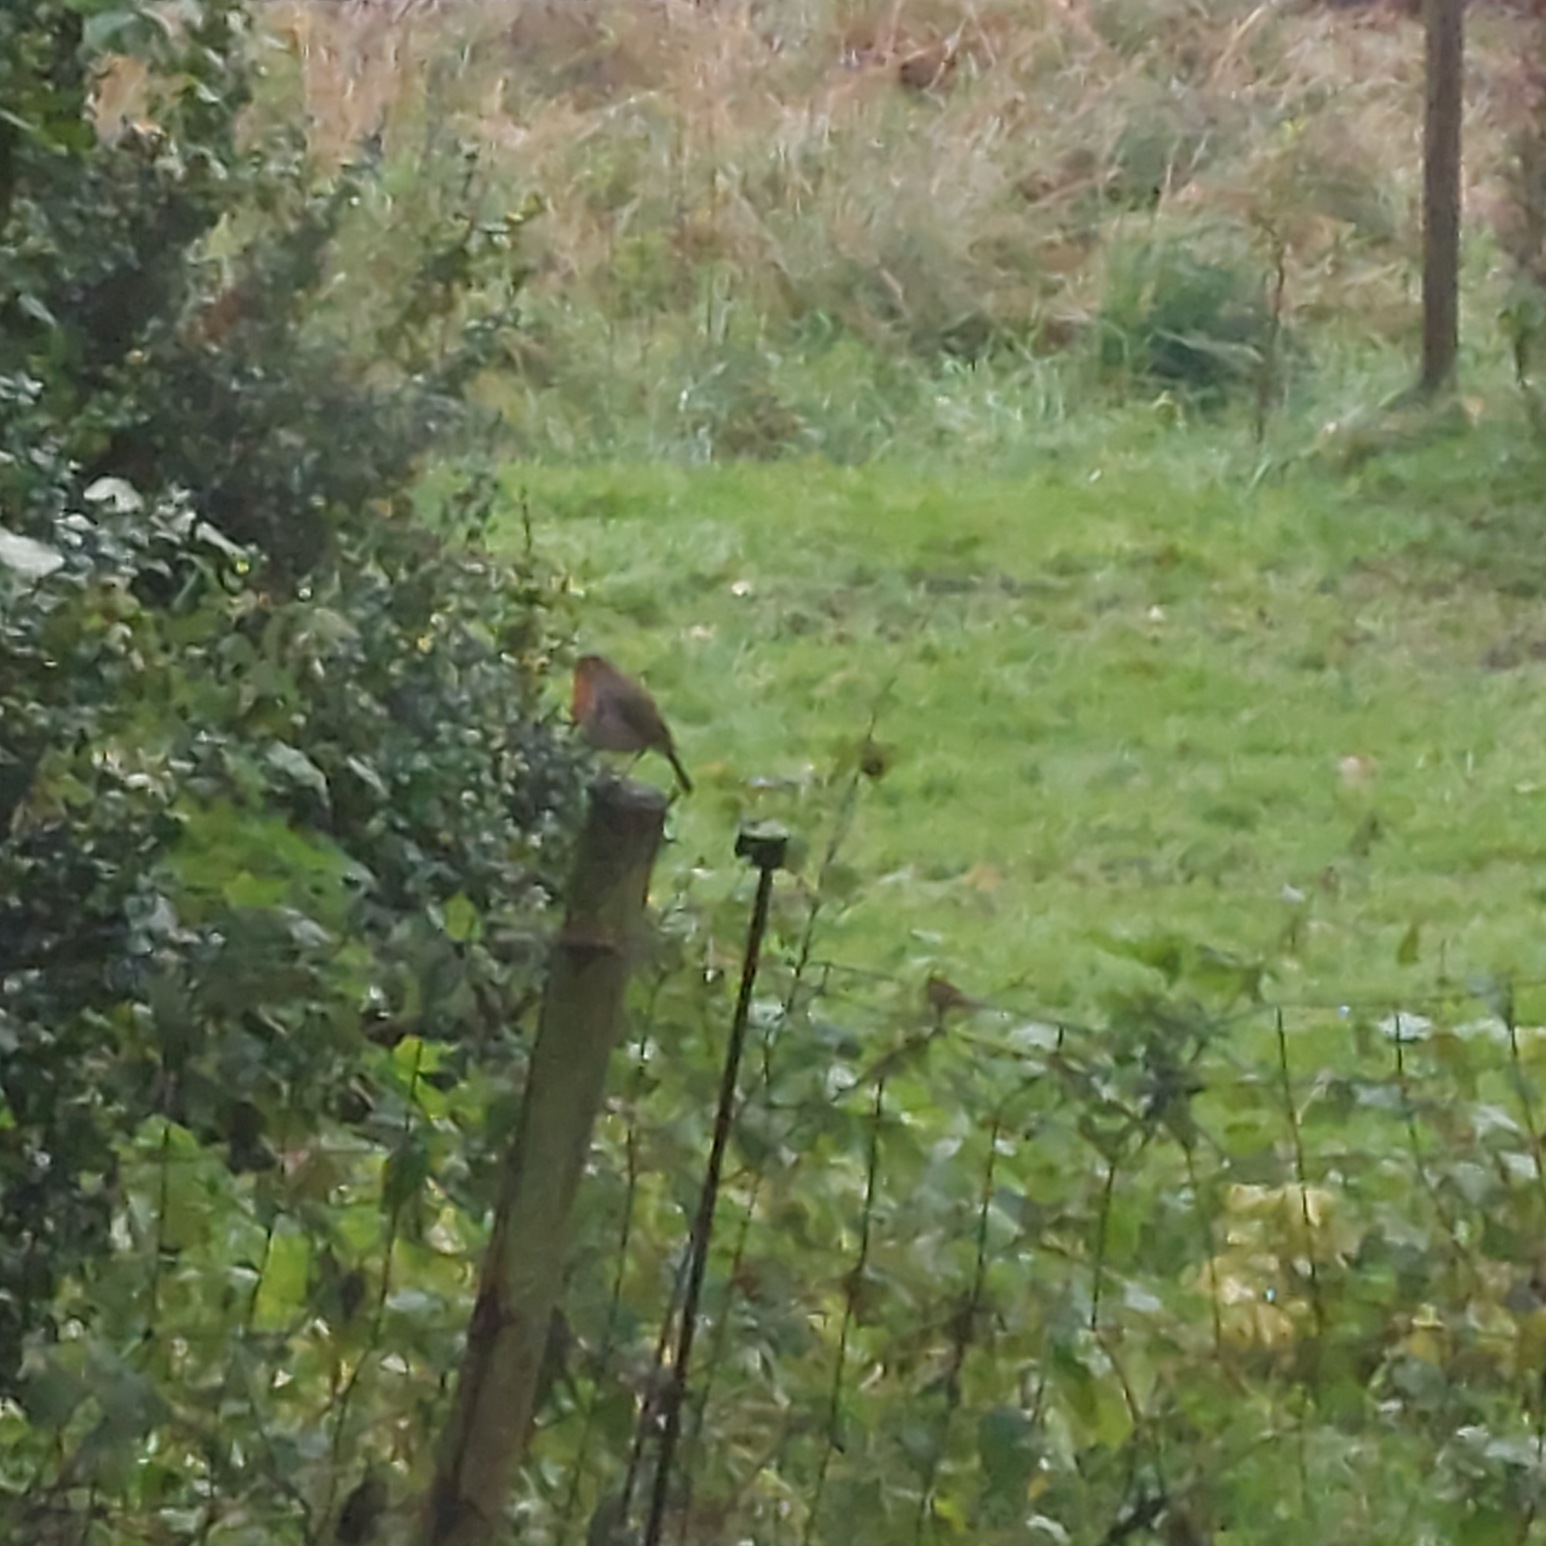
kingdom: Animalia
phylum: Chordata
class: Aves
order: Passeriformes
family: Muscicapidae
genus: Erithacus
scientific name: Erithacus rubecula
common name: Rødhals/rødkælk
